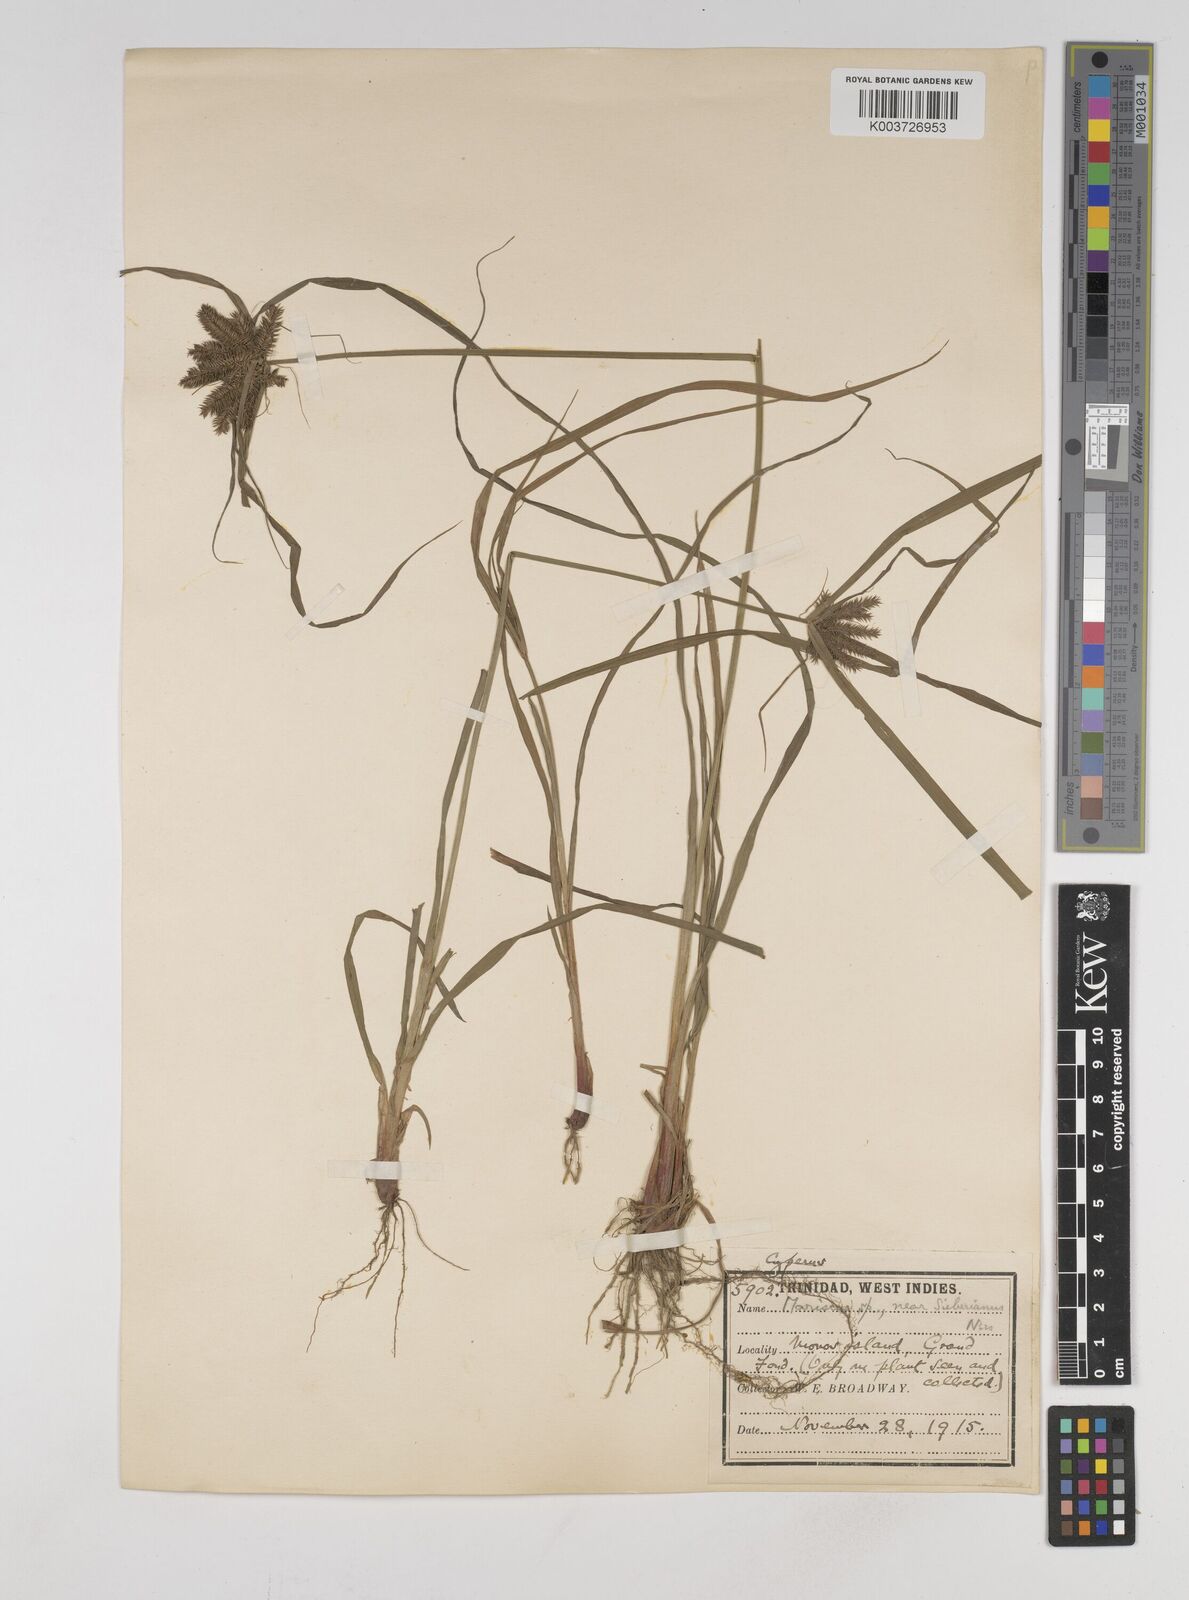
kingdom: Plantae
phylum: Tracheophyta
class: Liliopsida
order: Poales
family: Cyperaceae
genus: Cyperus
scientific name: Cyperus cyperoides
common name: Pacific island flat sedge
